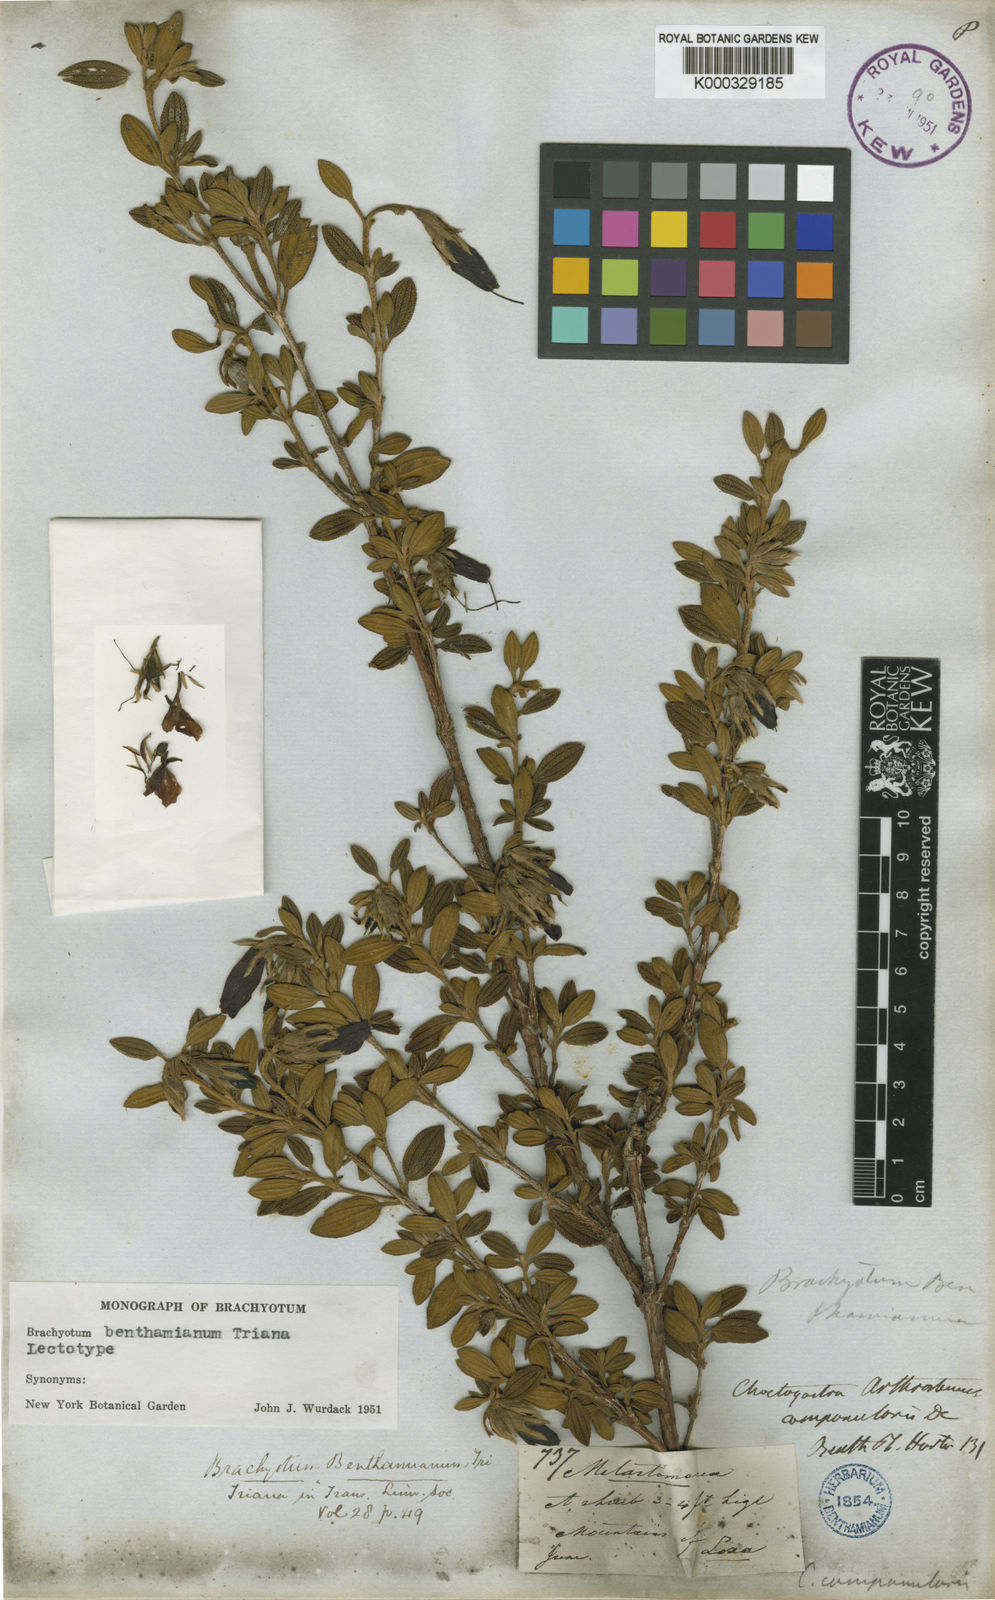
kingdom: Plantae
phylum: Tracheophyta
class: Magnoliopsida
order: Myrtales
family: Melastomataceae
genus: Brachyotum
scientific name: Brachyotum benthamianum
